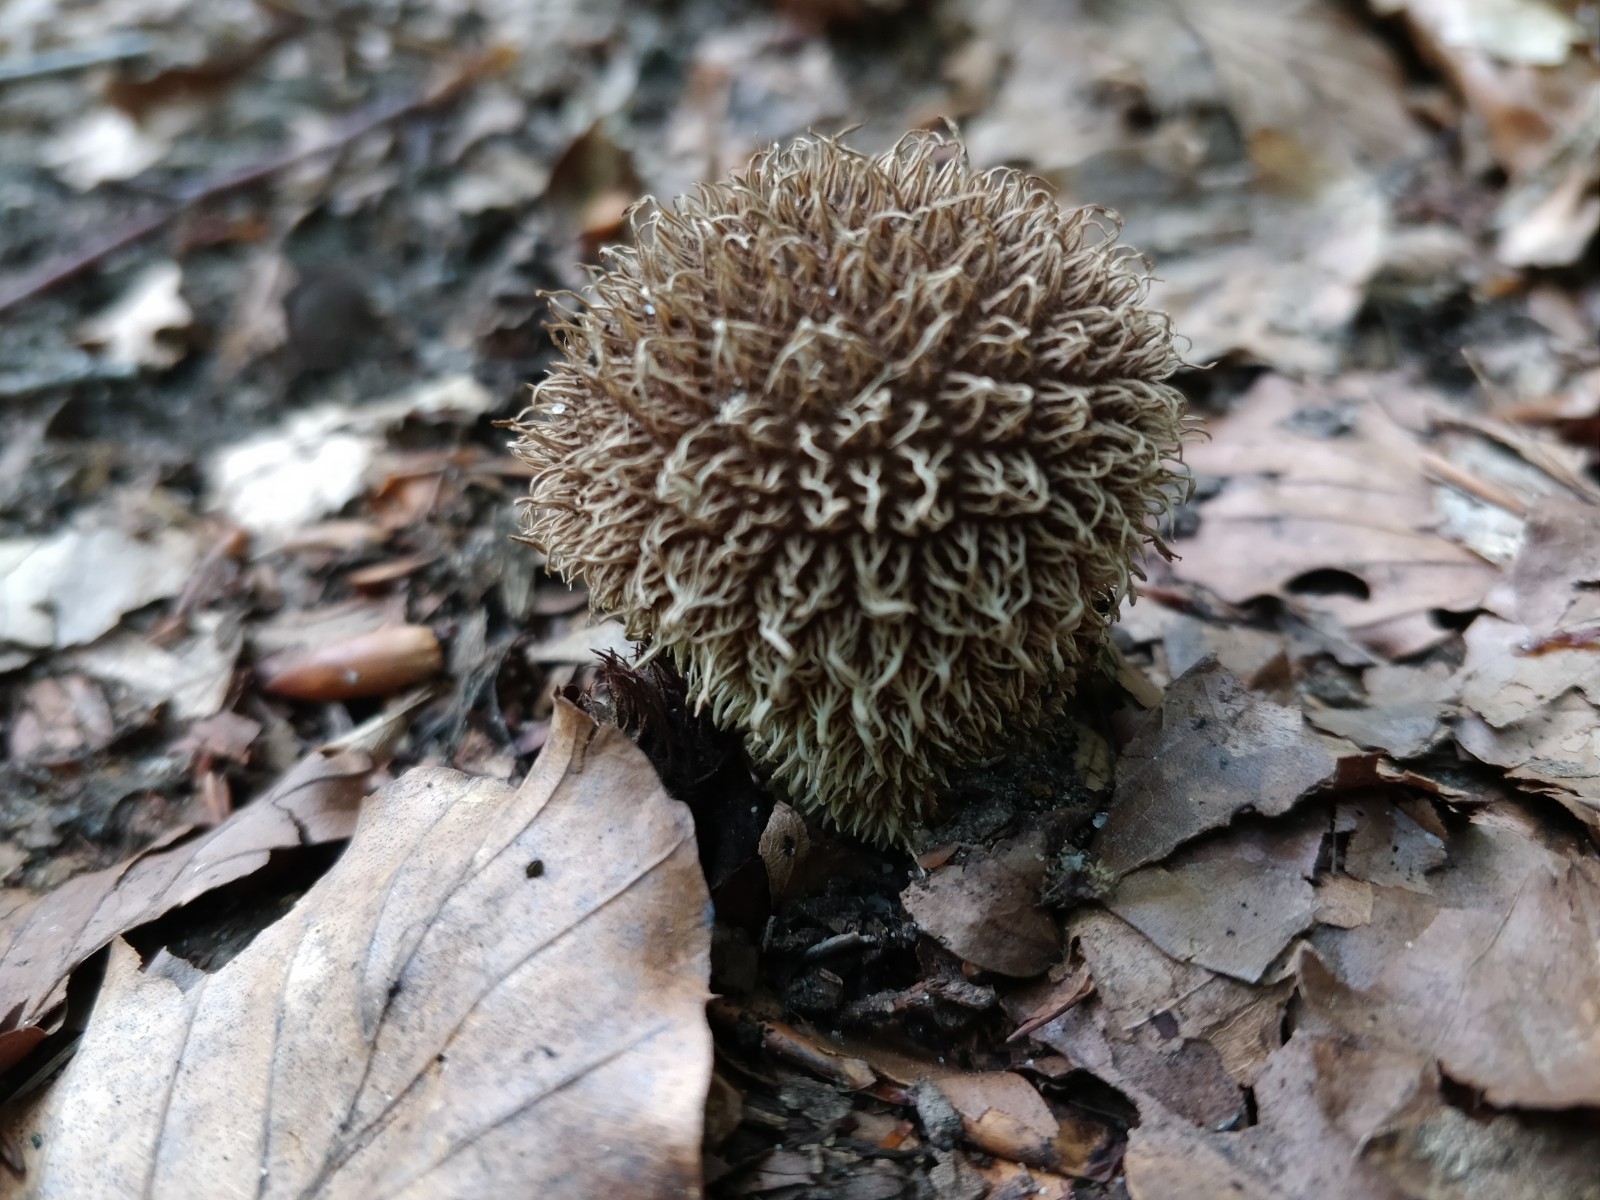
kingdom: Fungi
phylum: Basidiomycota
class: Agaricomycetes
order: Agaricales
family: Lycoperdaceae
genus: Lycoperdon
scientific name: Lycoperdon echinatum
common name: pindsvine-støvbold
